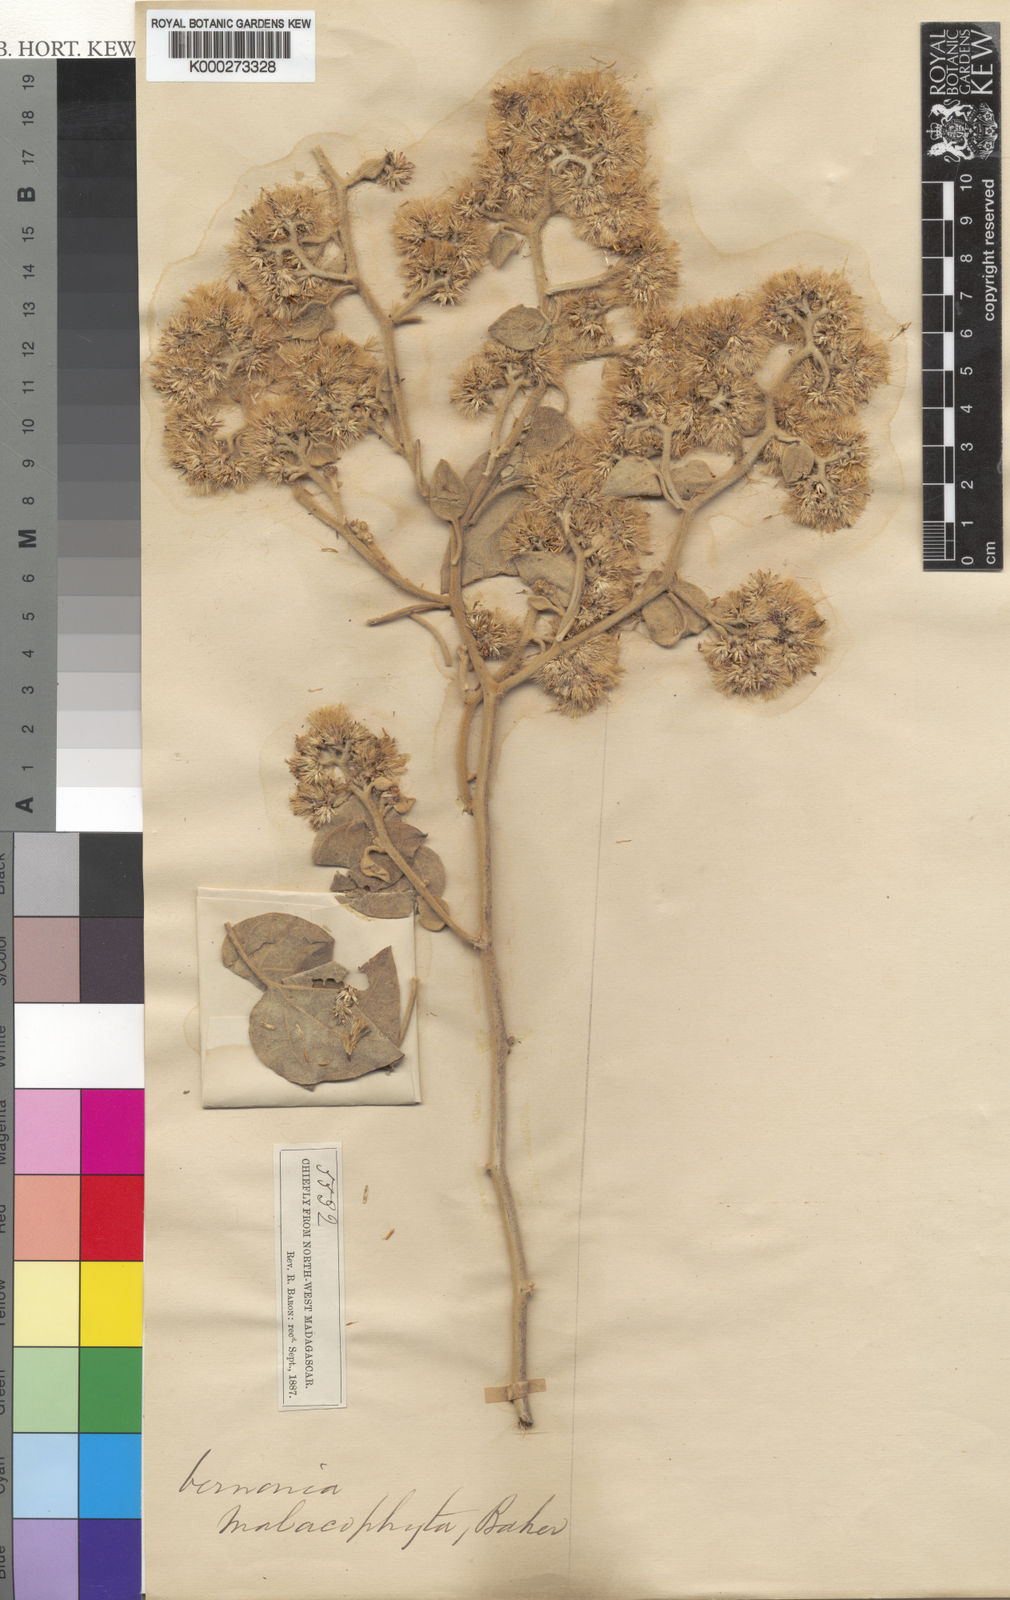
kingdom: Plantae
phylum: Tracheophyta
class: Magnoliopsida
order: Asterales
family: Asteraceae
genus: Distephanus
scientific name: Distephanus malacophytus
